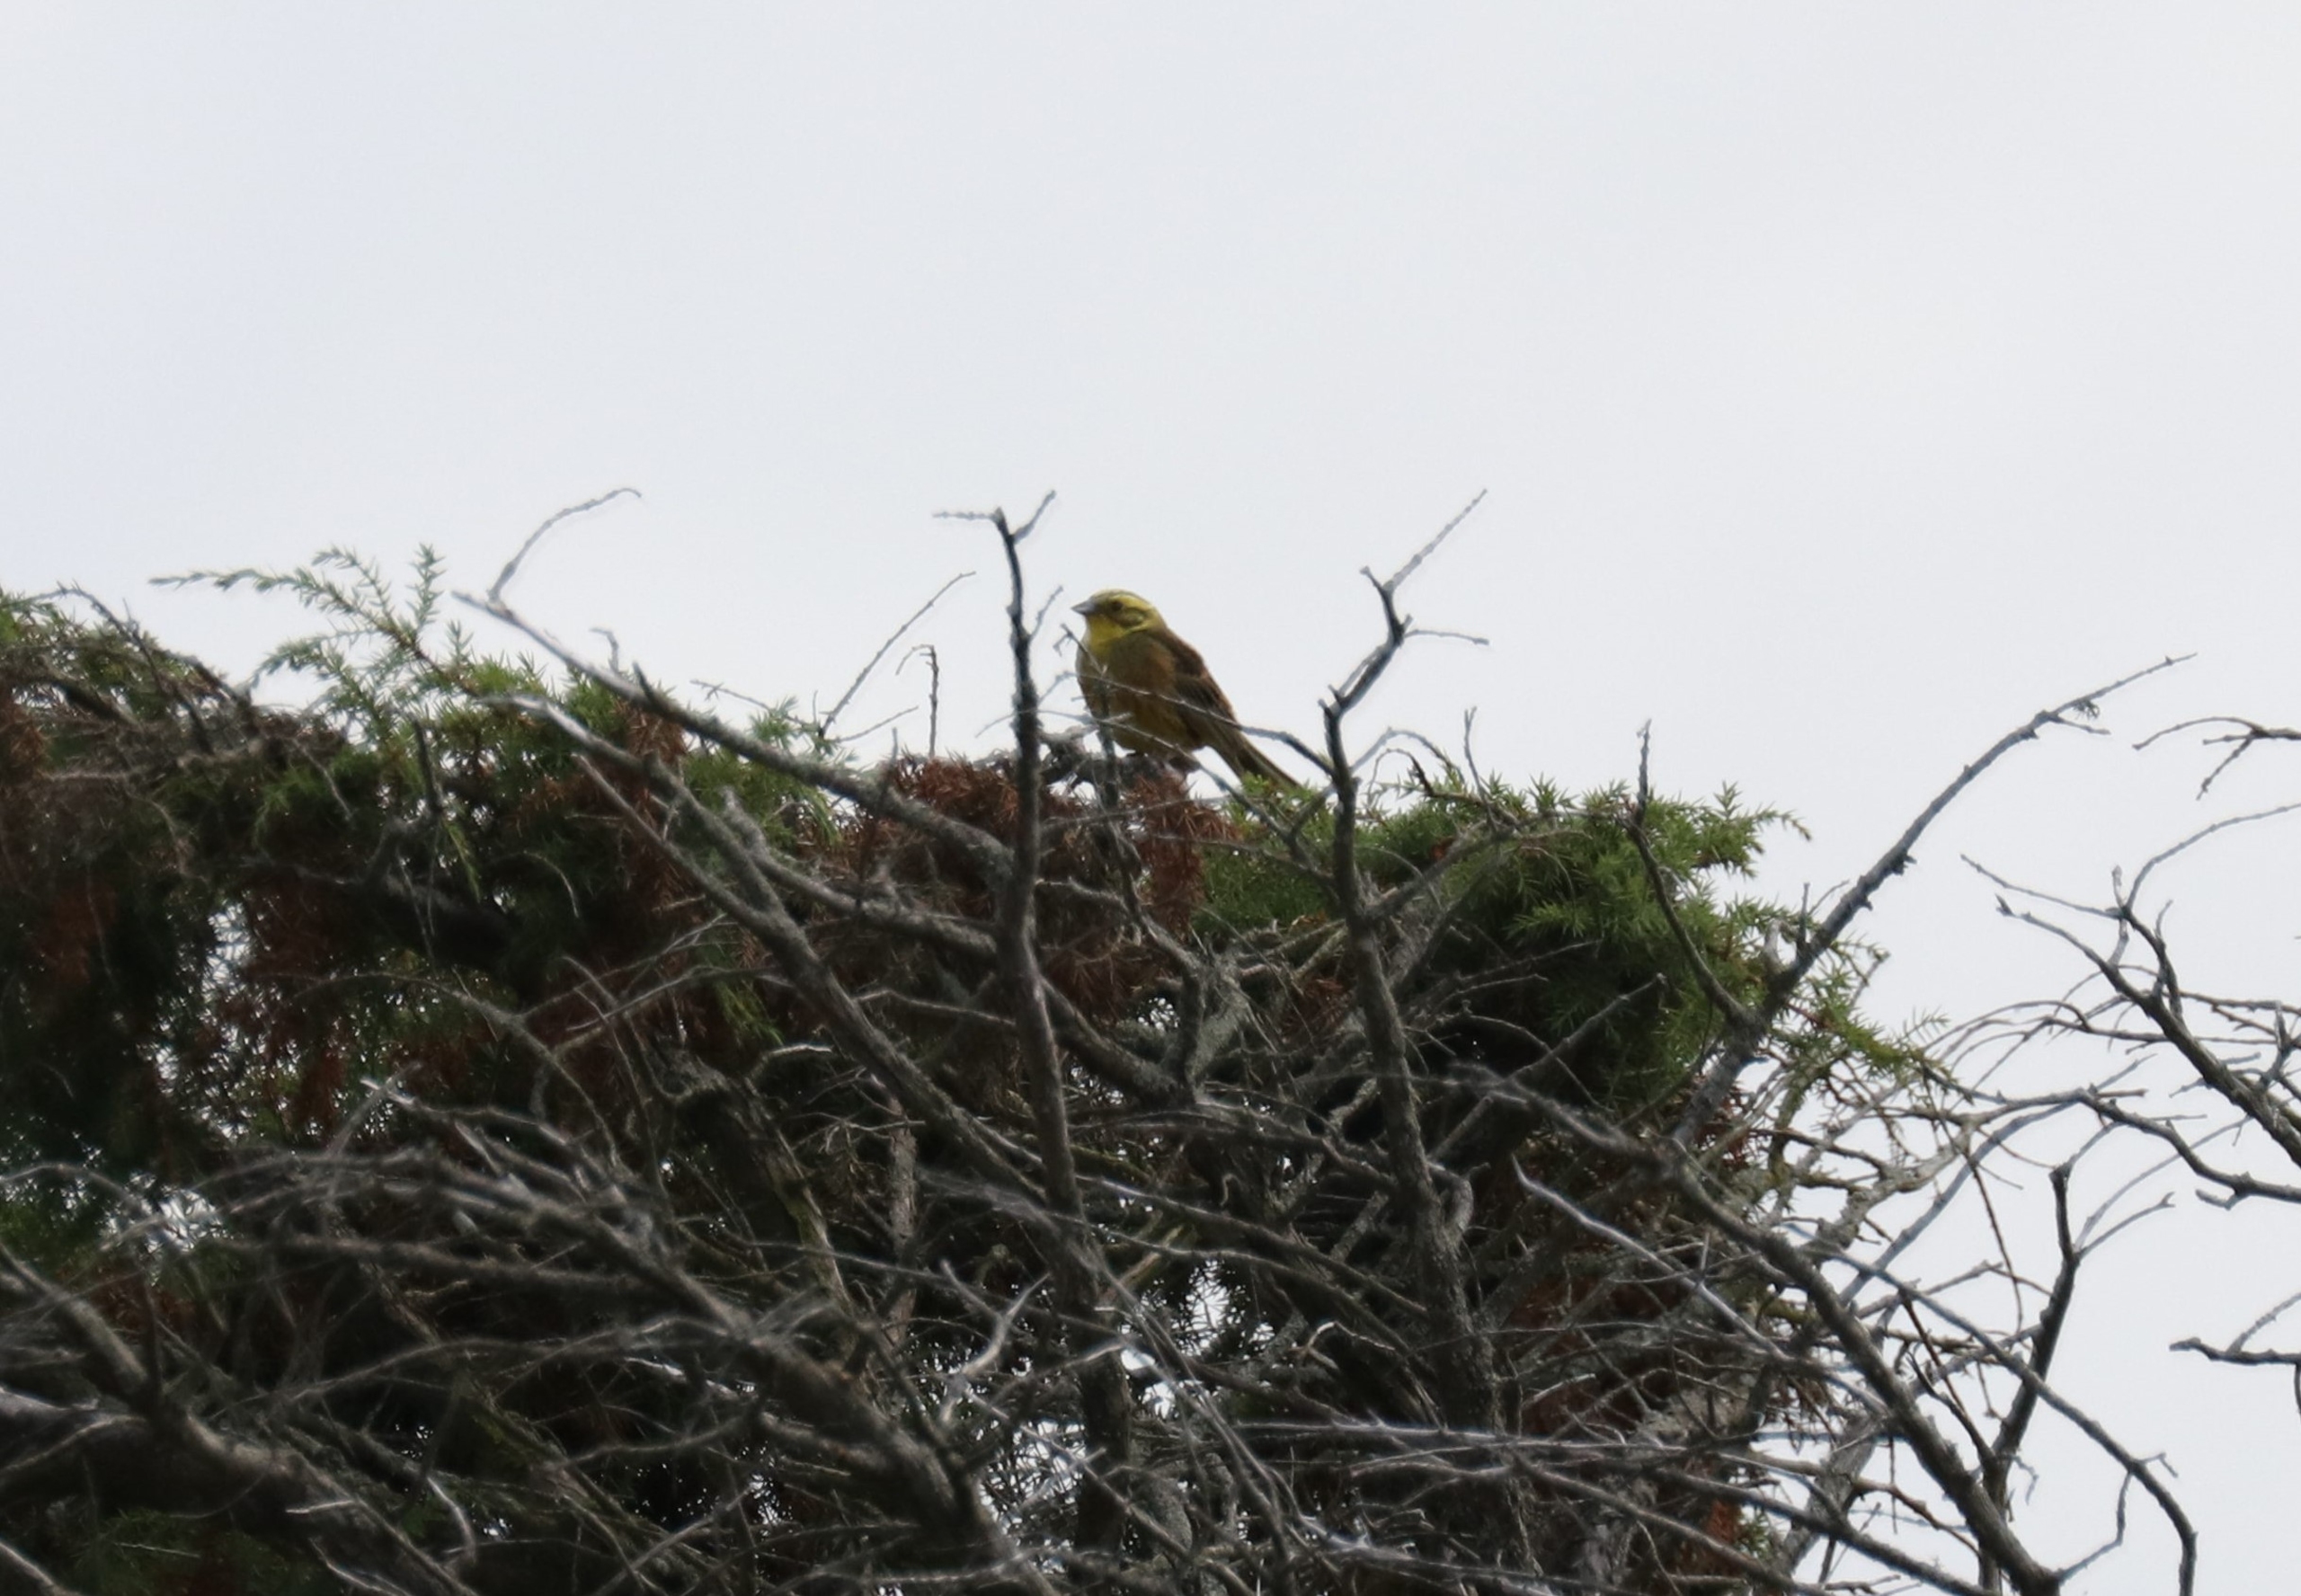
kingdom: Animalia
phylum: Chordata
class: Aves
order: Passeriformes
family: Emberizidae
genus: Emberiza
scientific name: Emberiza citrinella
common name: Gulspurv
